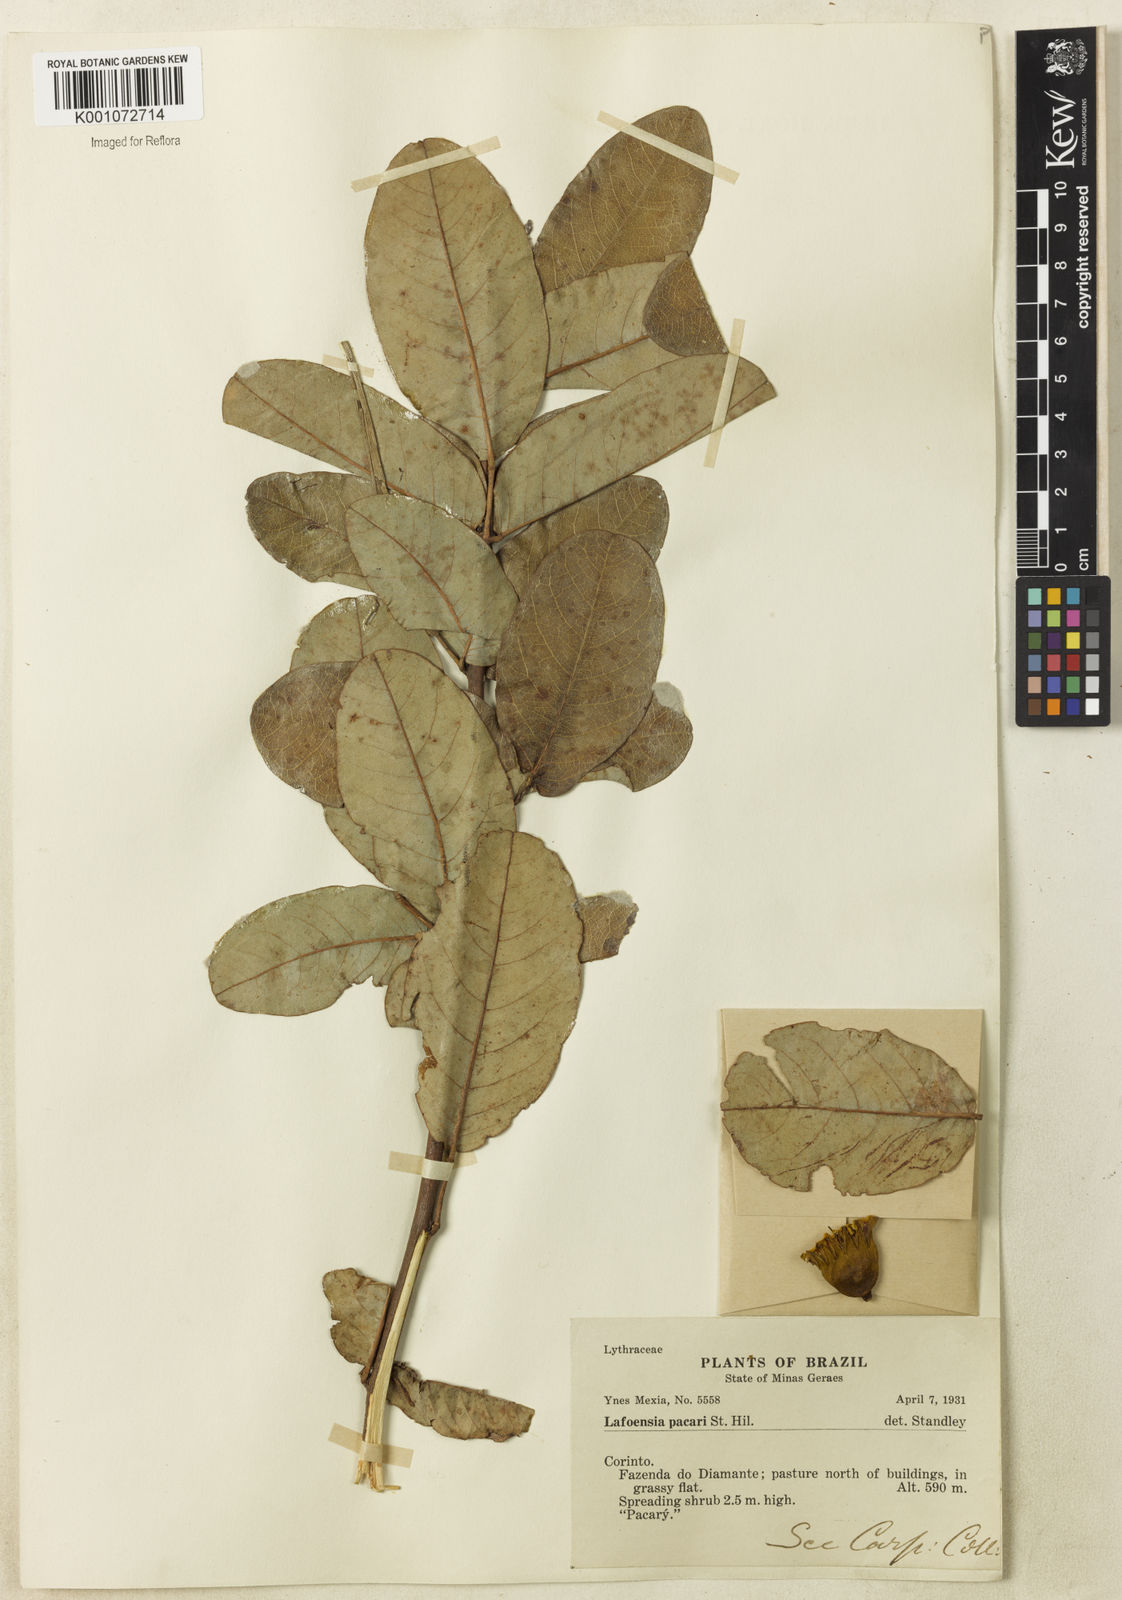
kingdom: Plantae
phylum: Tracheophyta
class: Magnoliopsida
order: Myrtales
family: Lythraceae
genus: Lafoensia
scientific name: Lafoensia pacari
